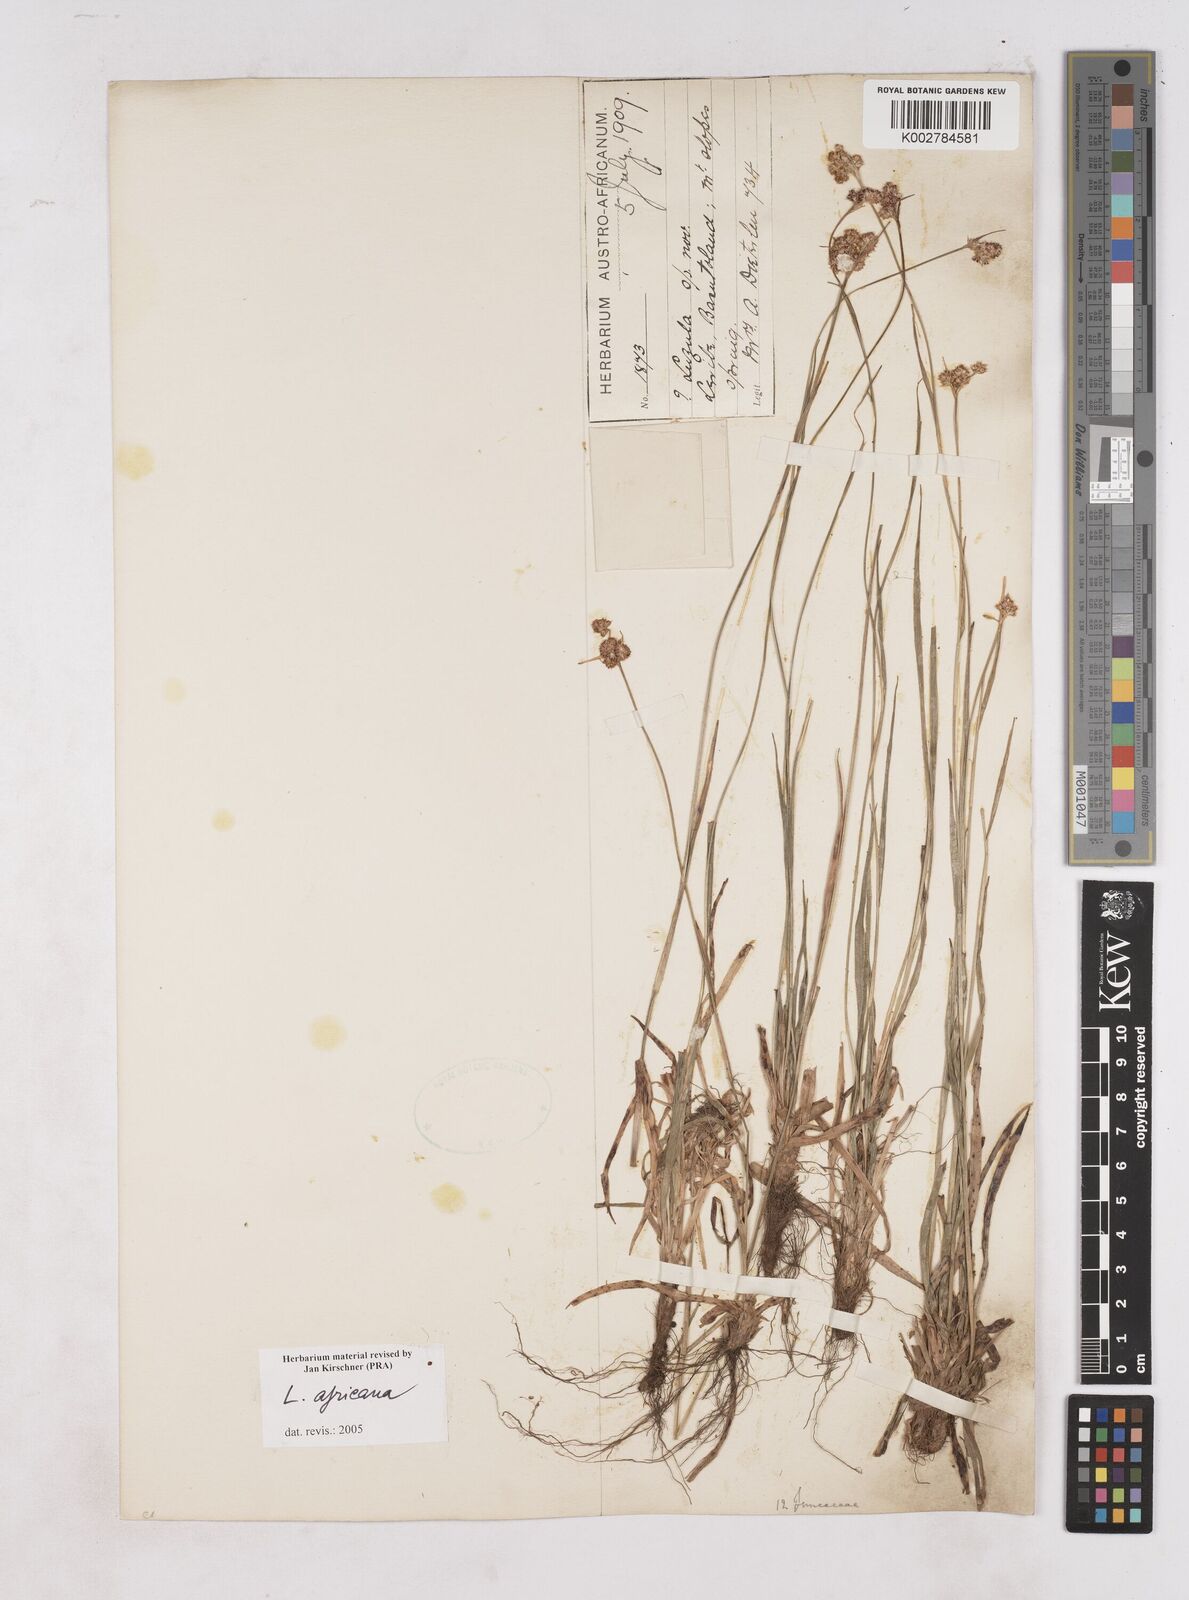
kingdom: Plantae
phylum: Tracheophyta
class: Liliopsida
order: Poales
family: Juncaceae
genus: Luzula
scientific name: Luzula africana
